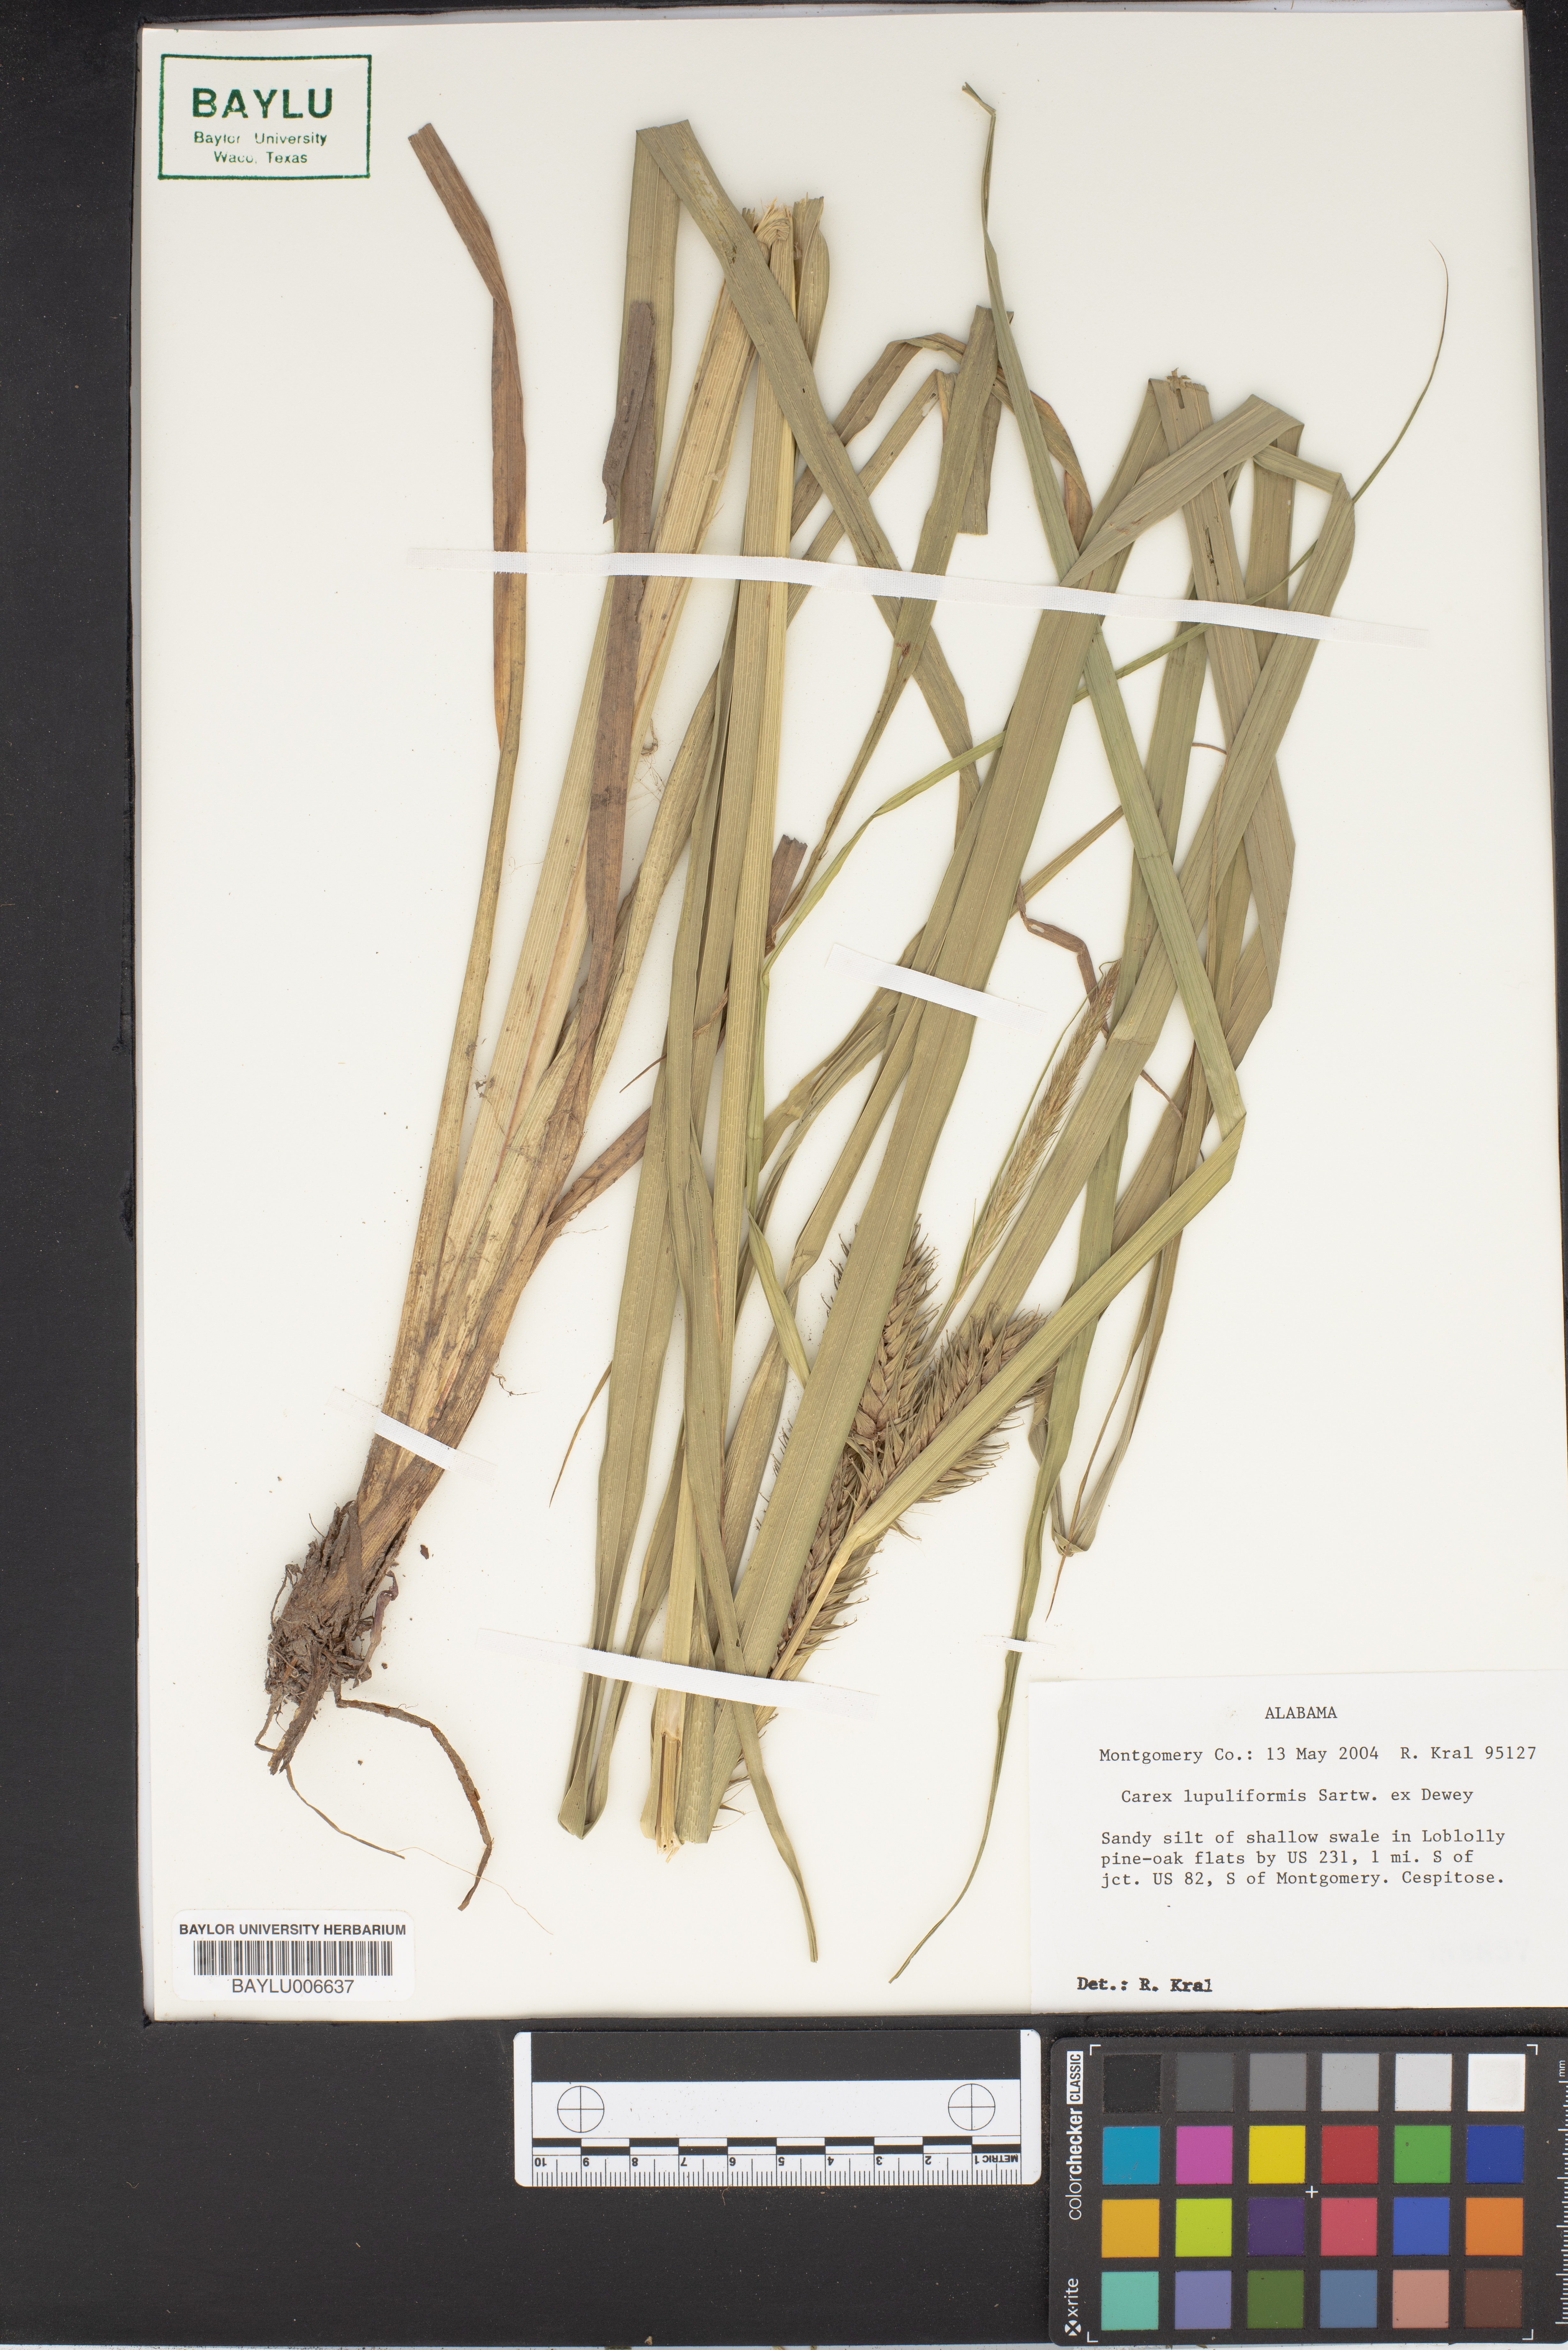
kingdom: Plantae
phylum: Tracheophyta
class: Liliopsida
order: Poales
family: Cyperaceae
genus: Carex
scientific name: Carex lupuliformis
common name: False hop sedge
